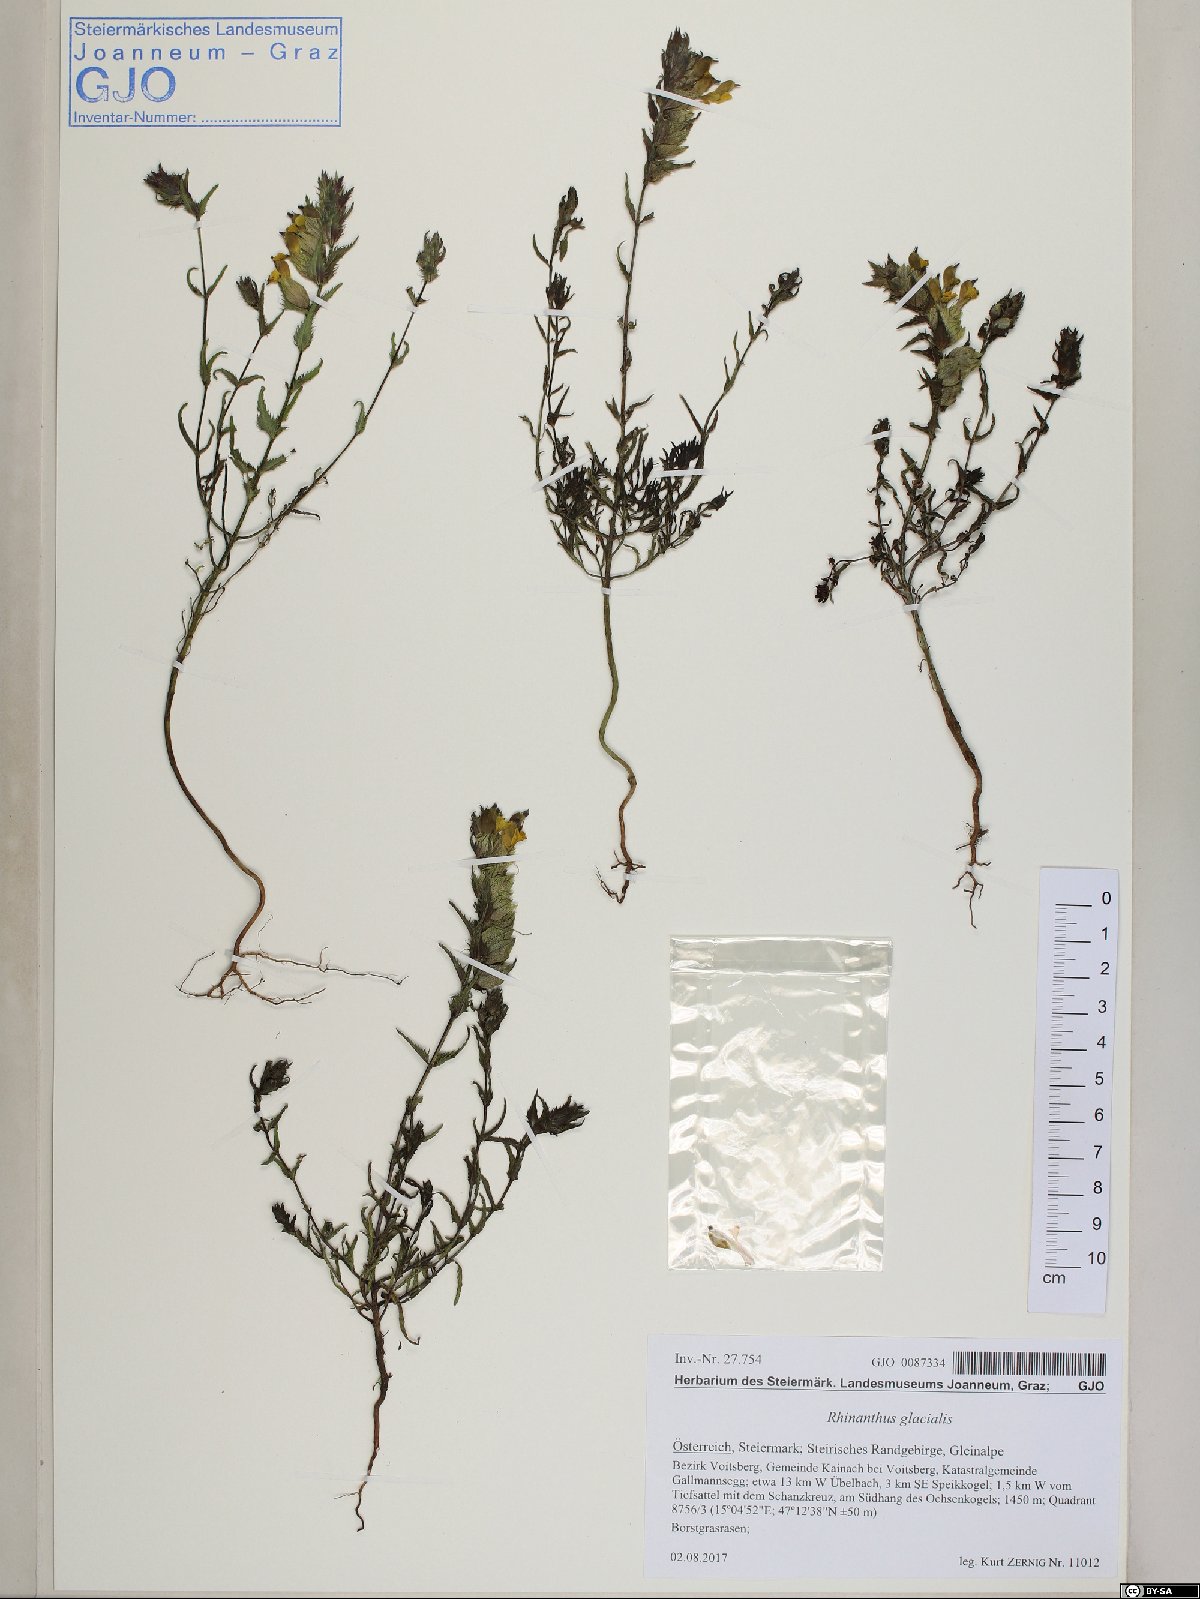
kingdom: Plantae
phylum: Tracheophyta
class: Magnoliopsida
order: Lamiales
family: Orobanchaceae
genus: Rhinanthus
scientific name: Rhinanthus glacialis
